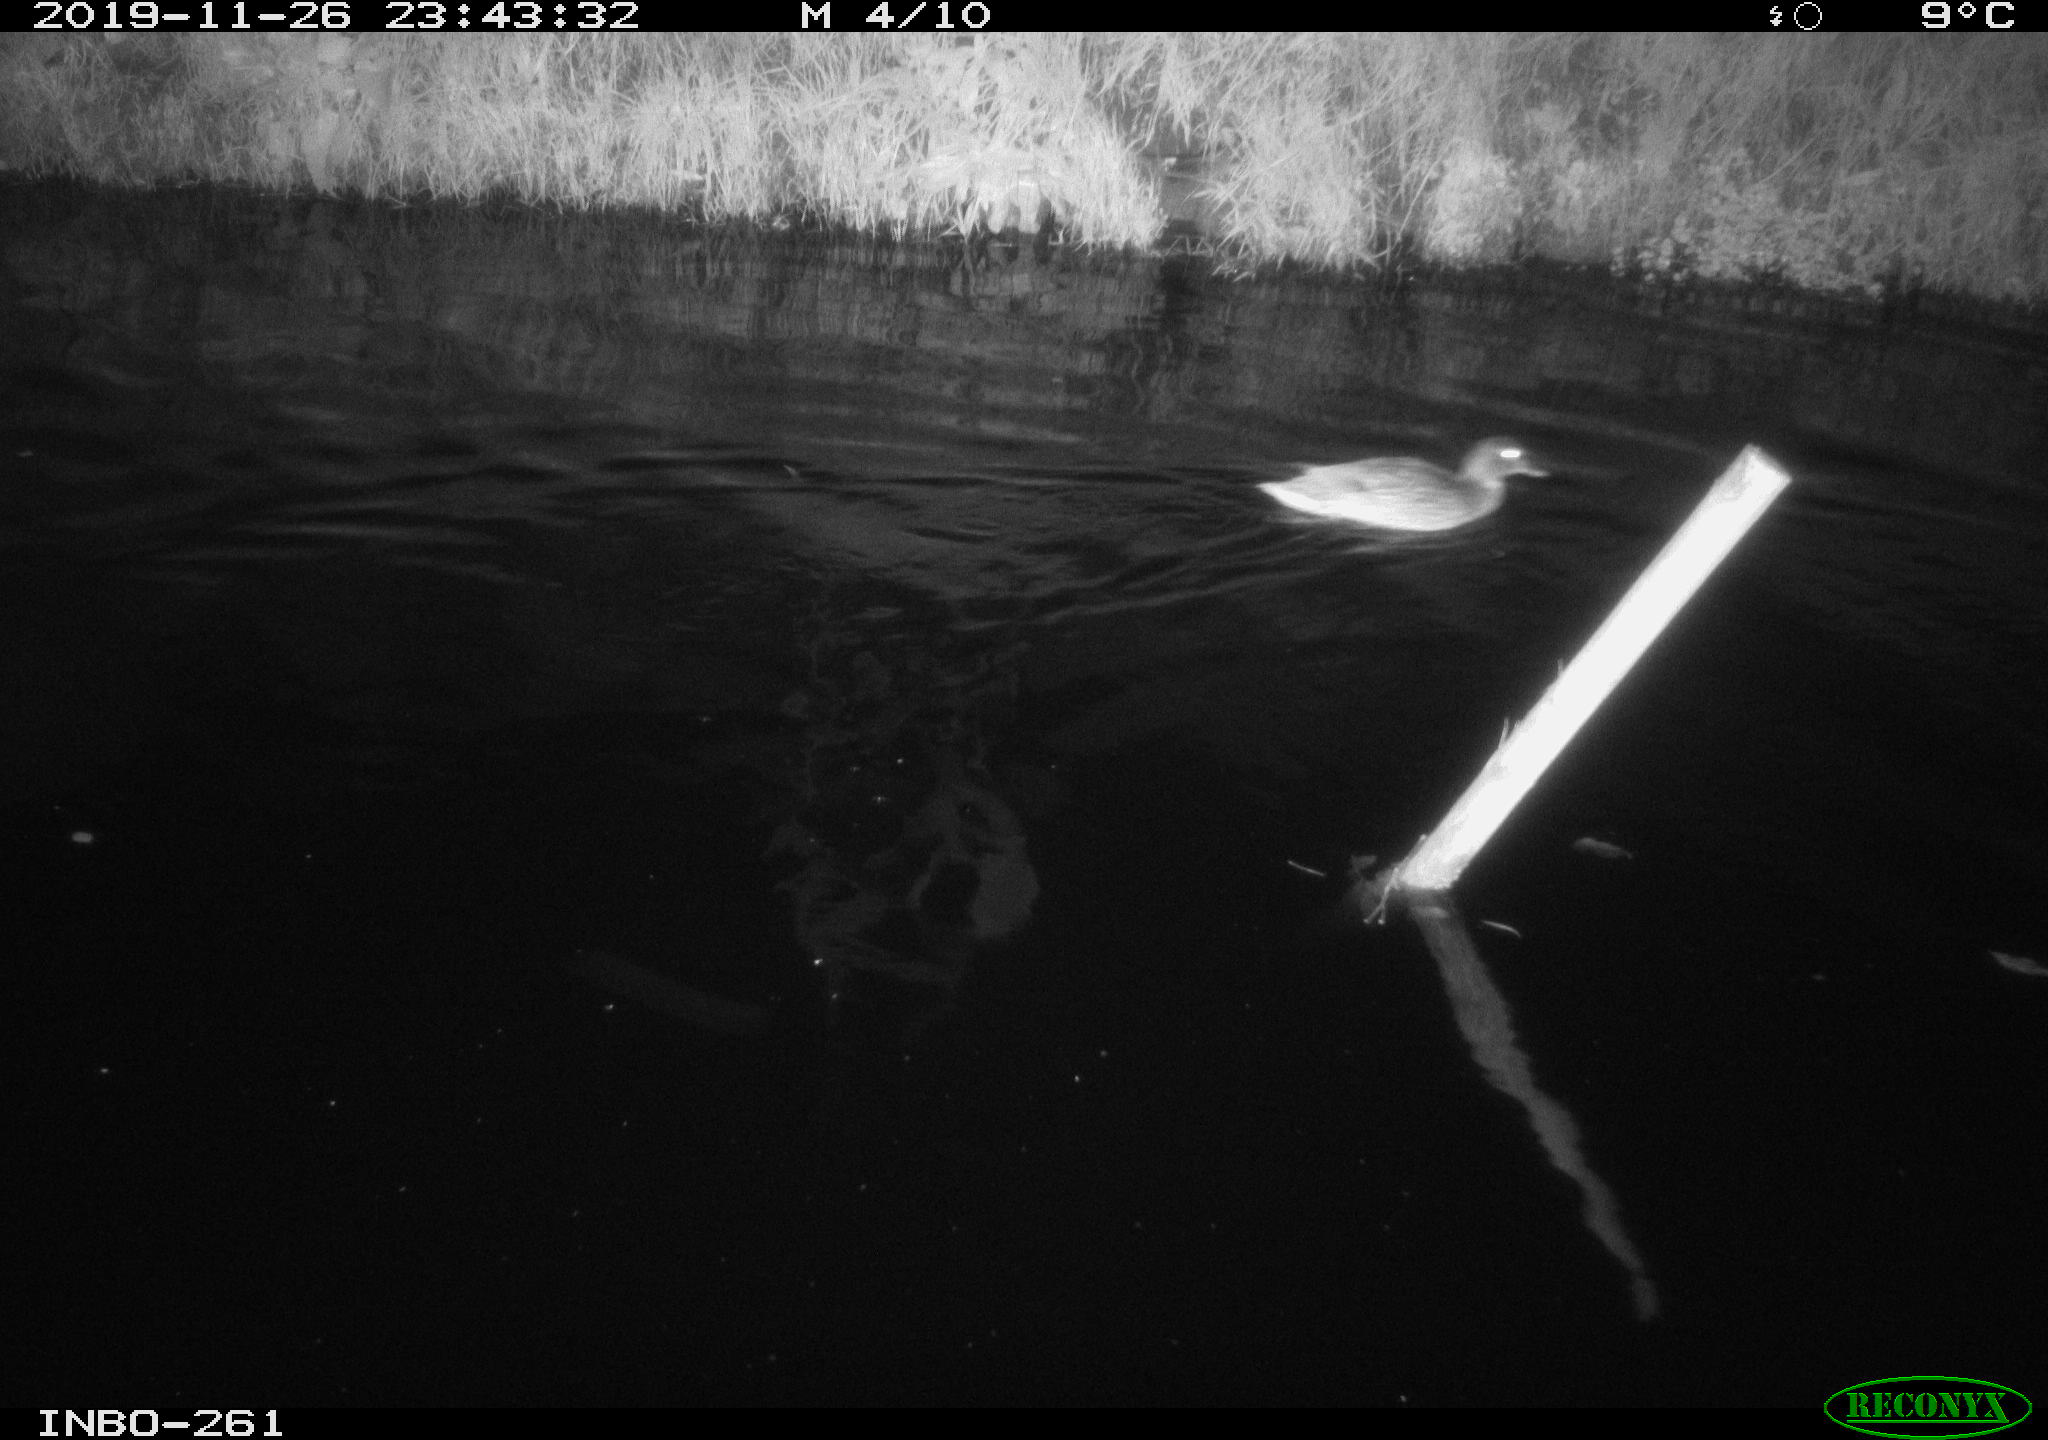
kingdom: Animalia
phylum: Chordata
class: Aves
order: Anseriformes
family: Anatidae
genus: Anas
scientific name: Anas platyrhynchos
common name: Mallard
